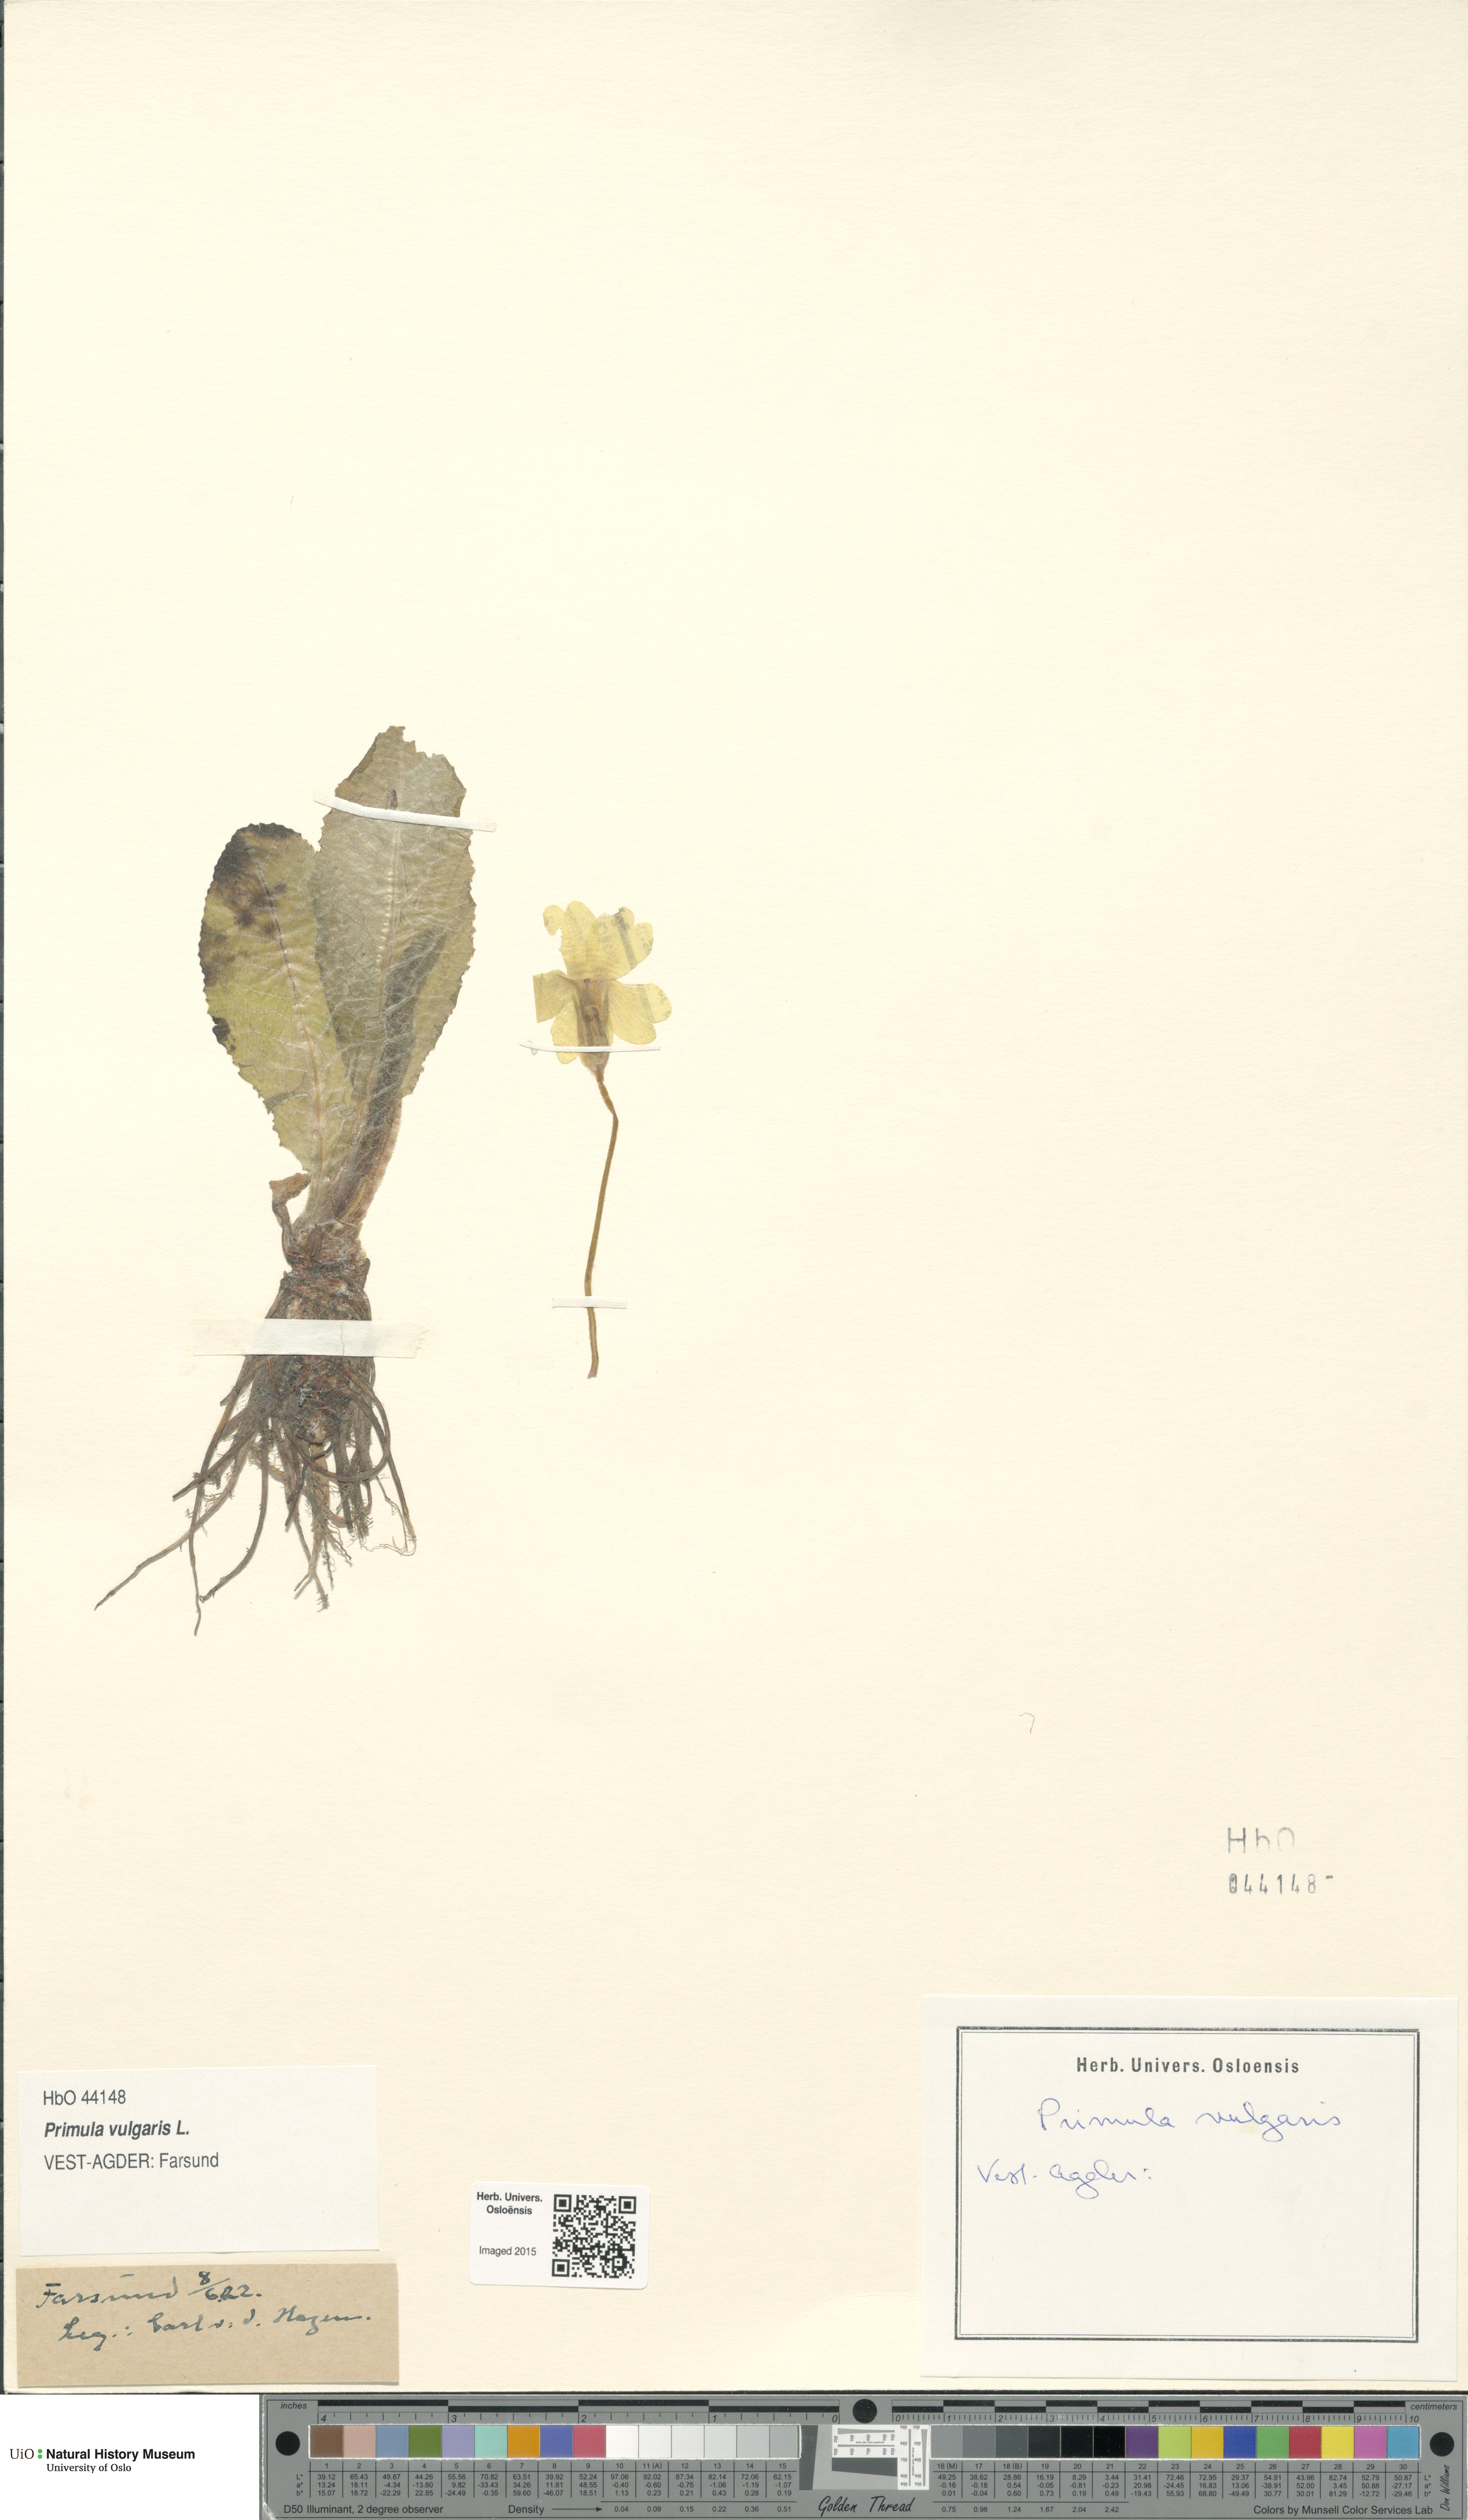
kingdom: Plantae
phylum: Tracheophyta
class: Magnoliopsida
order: Ericales
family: Primulaceae
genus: Primula
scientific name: Primula vulgaris
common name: Primrose
